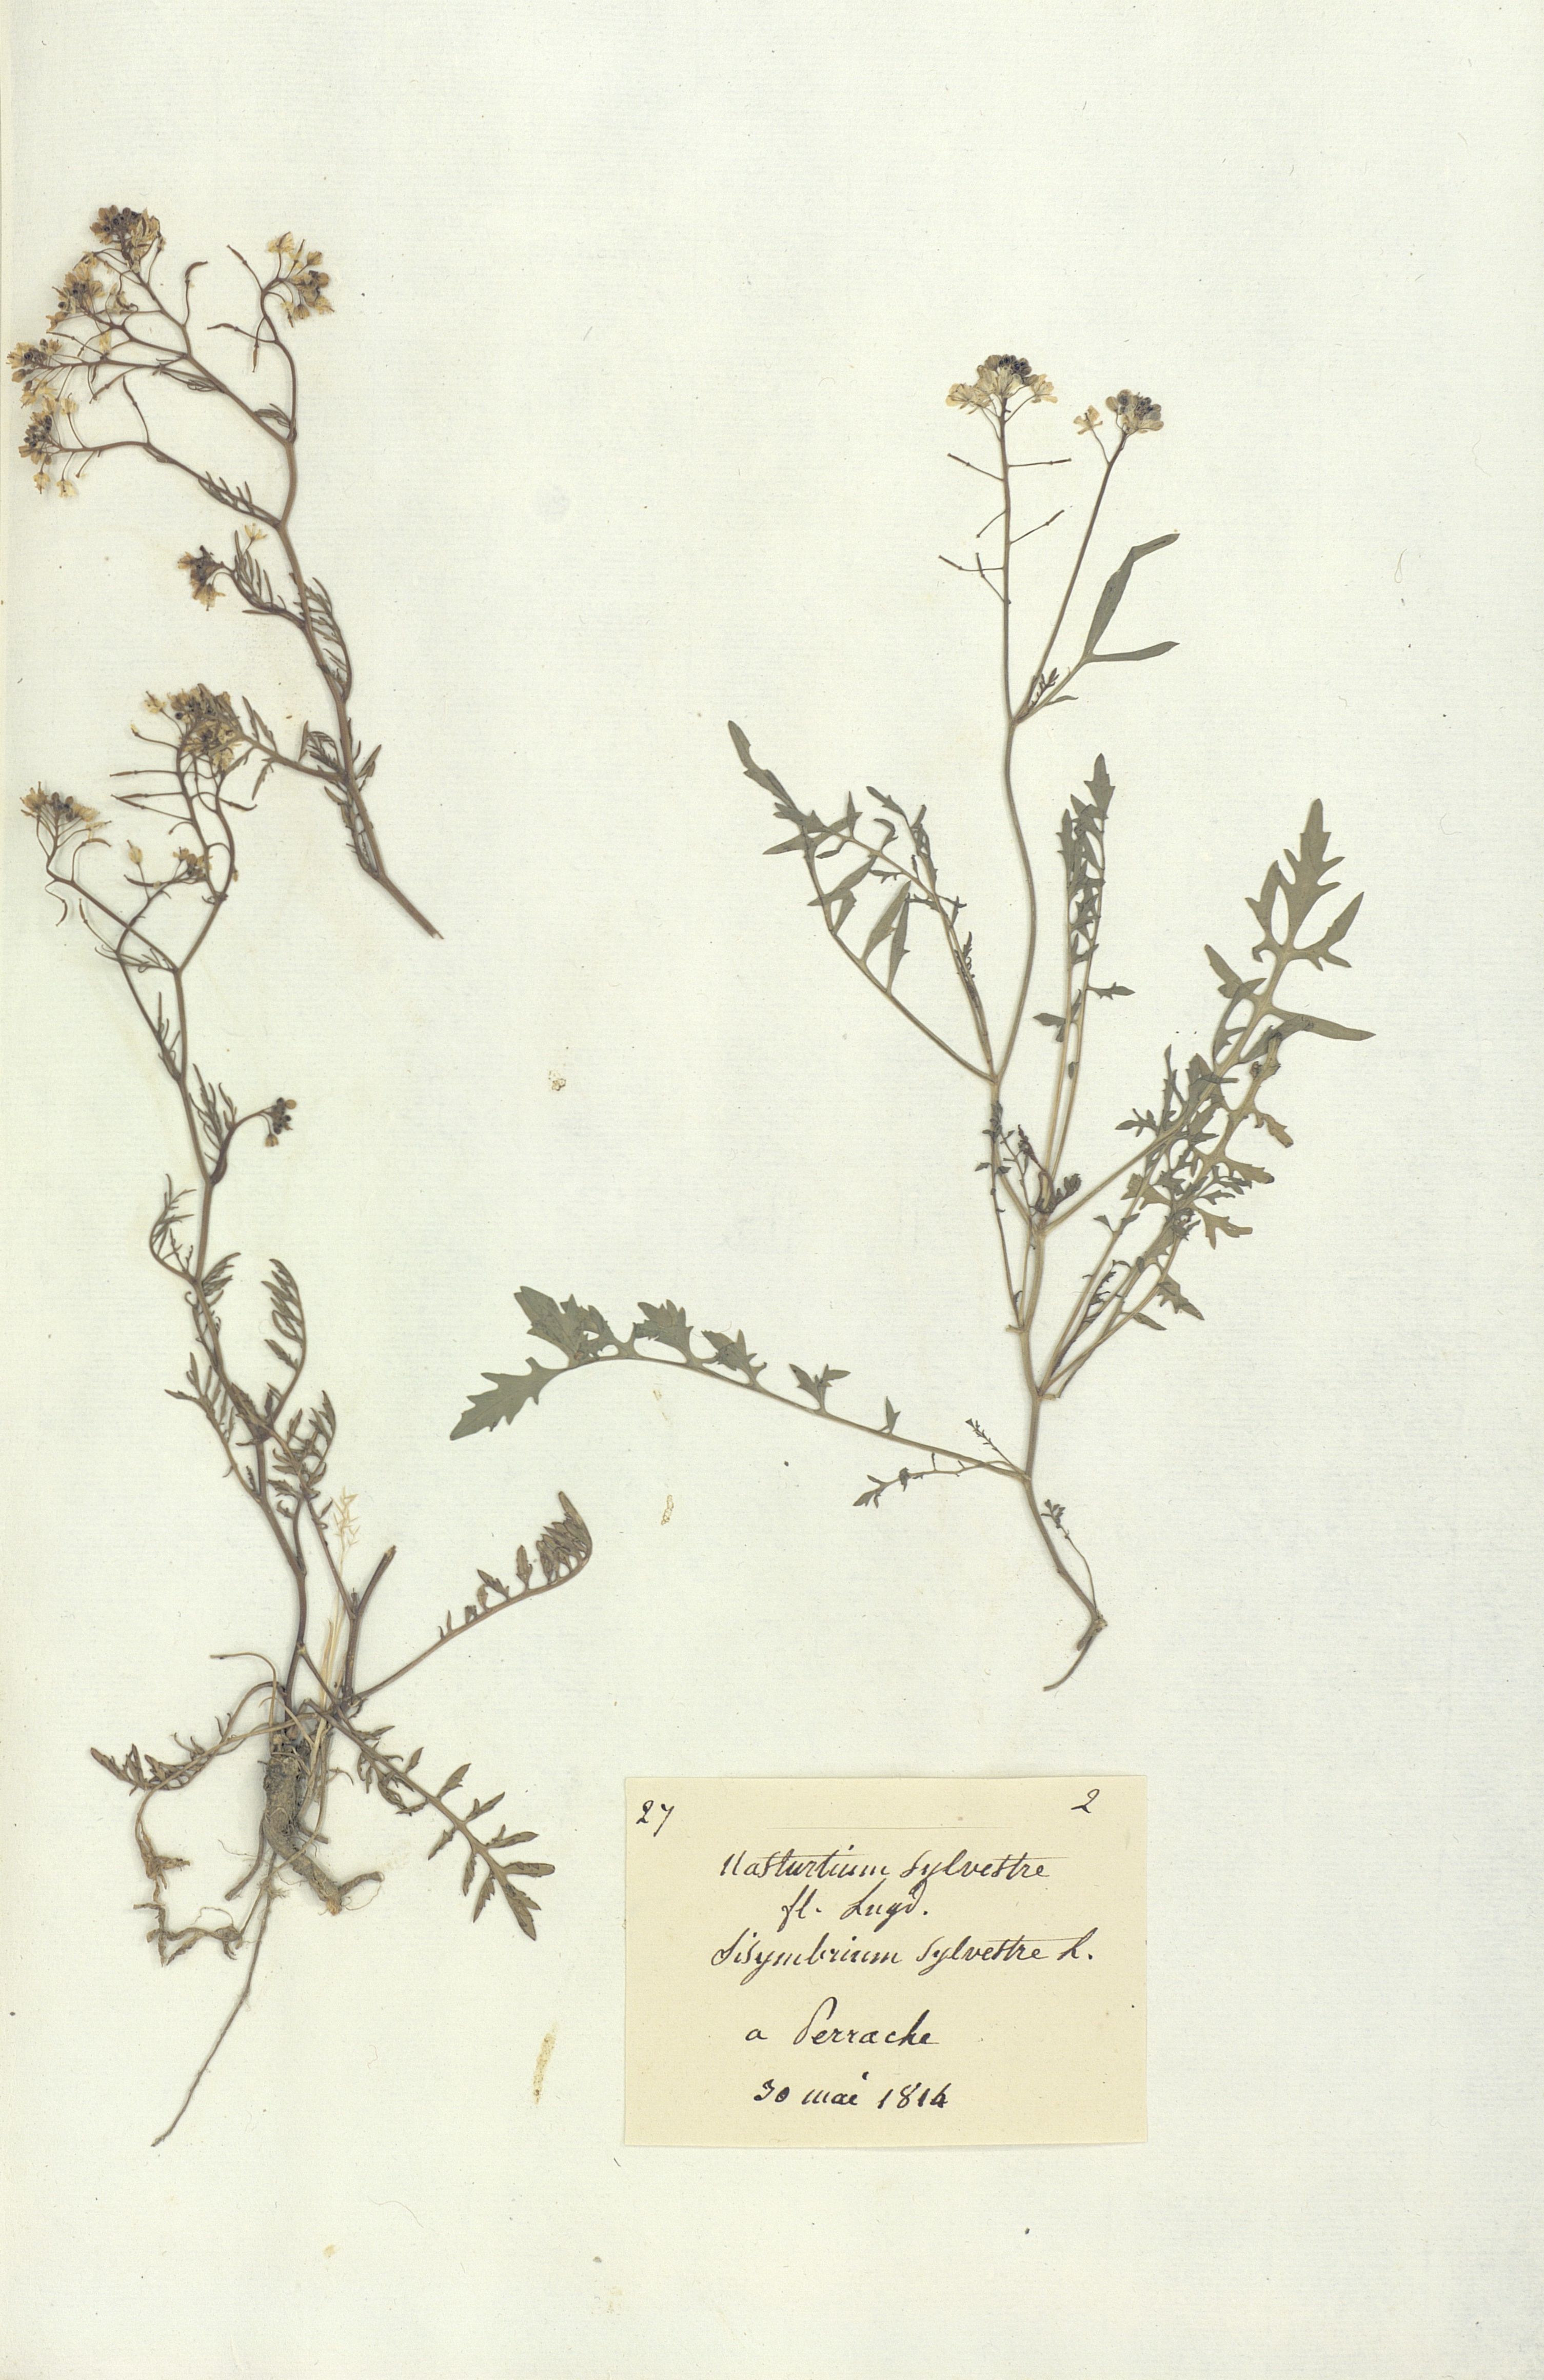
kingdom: Plantae
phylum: Tracheophyta
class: Magnoliopsida
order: Brassicales
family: Brassicaceae
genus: Rorippa
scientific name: Rorippa
